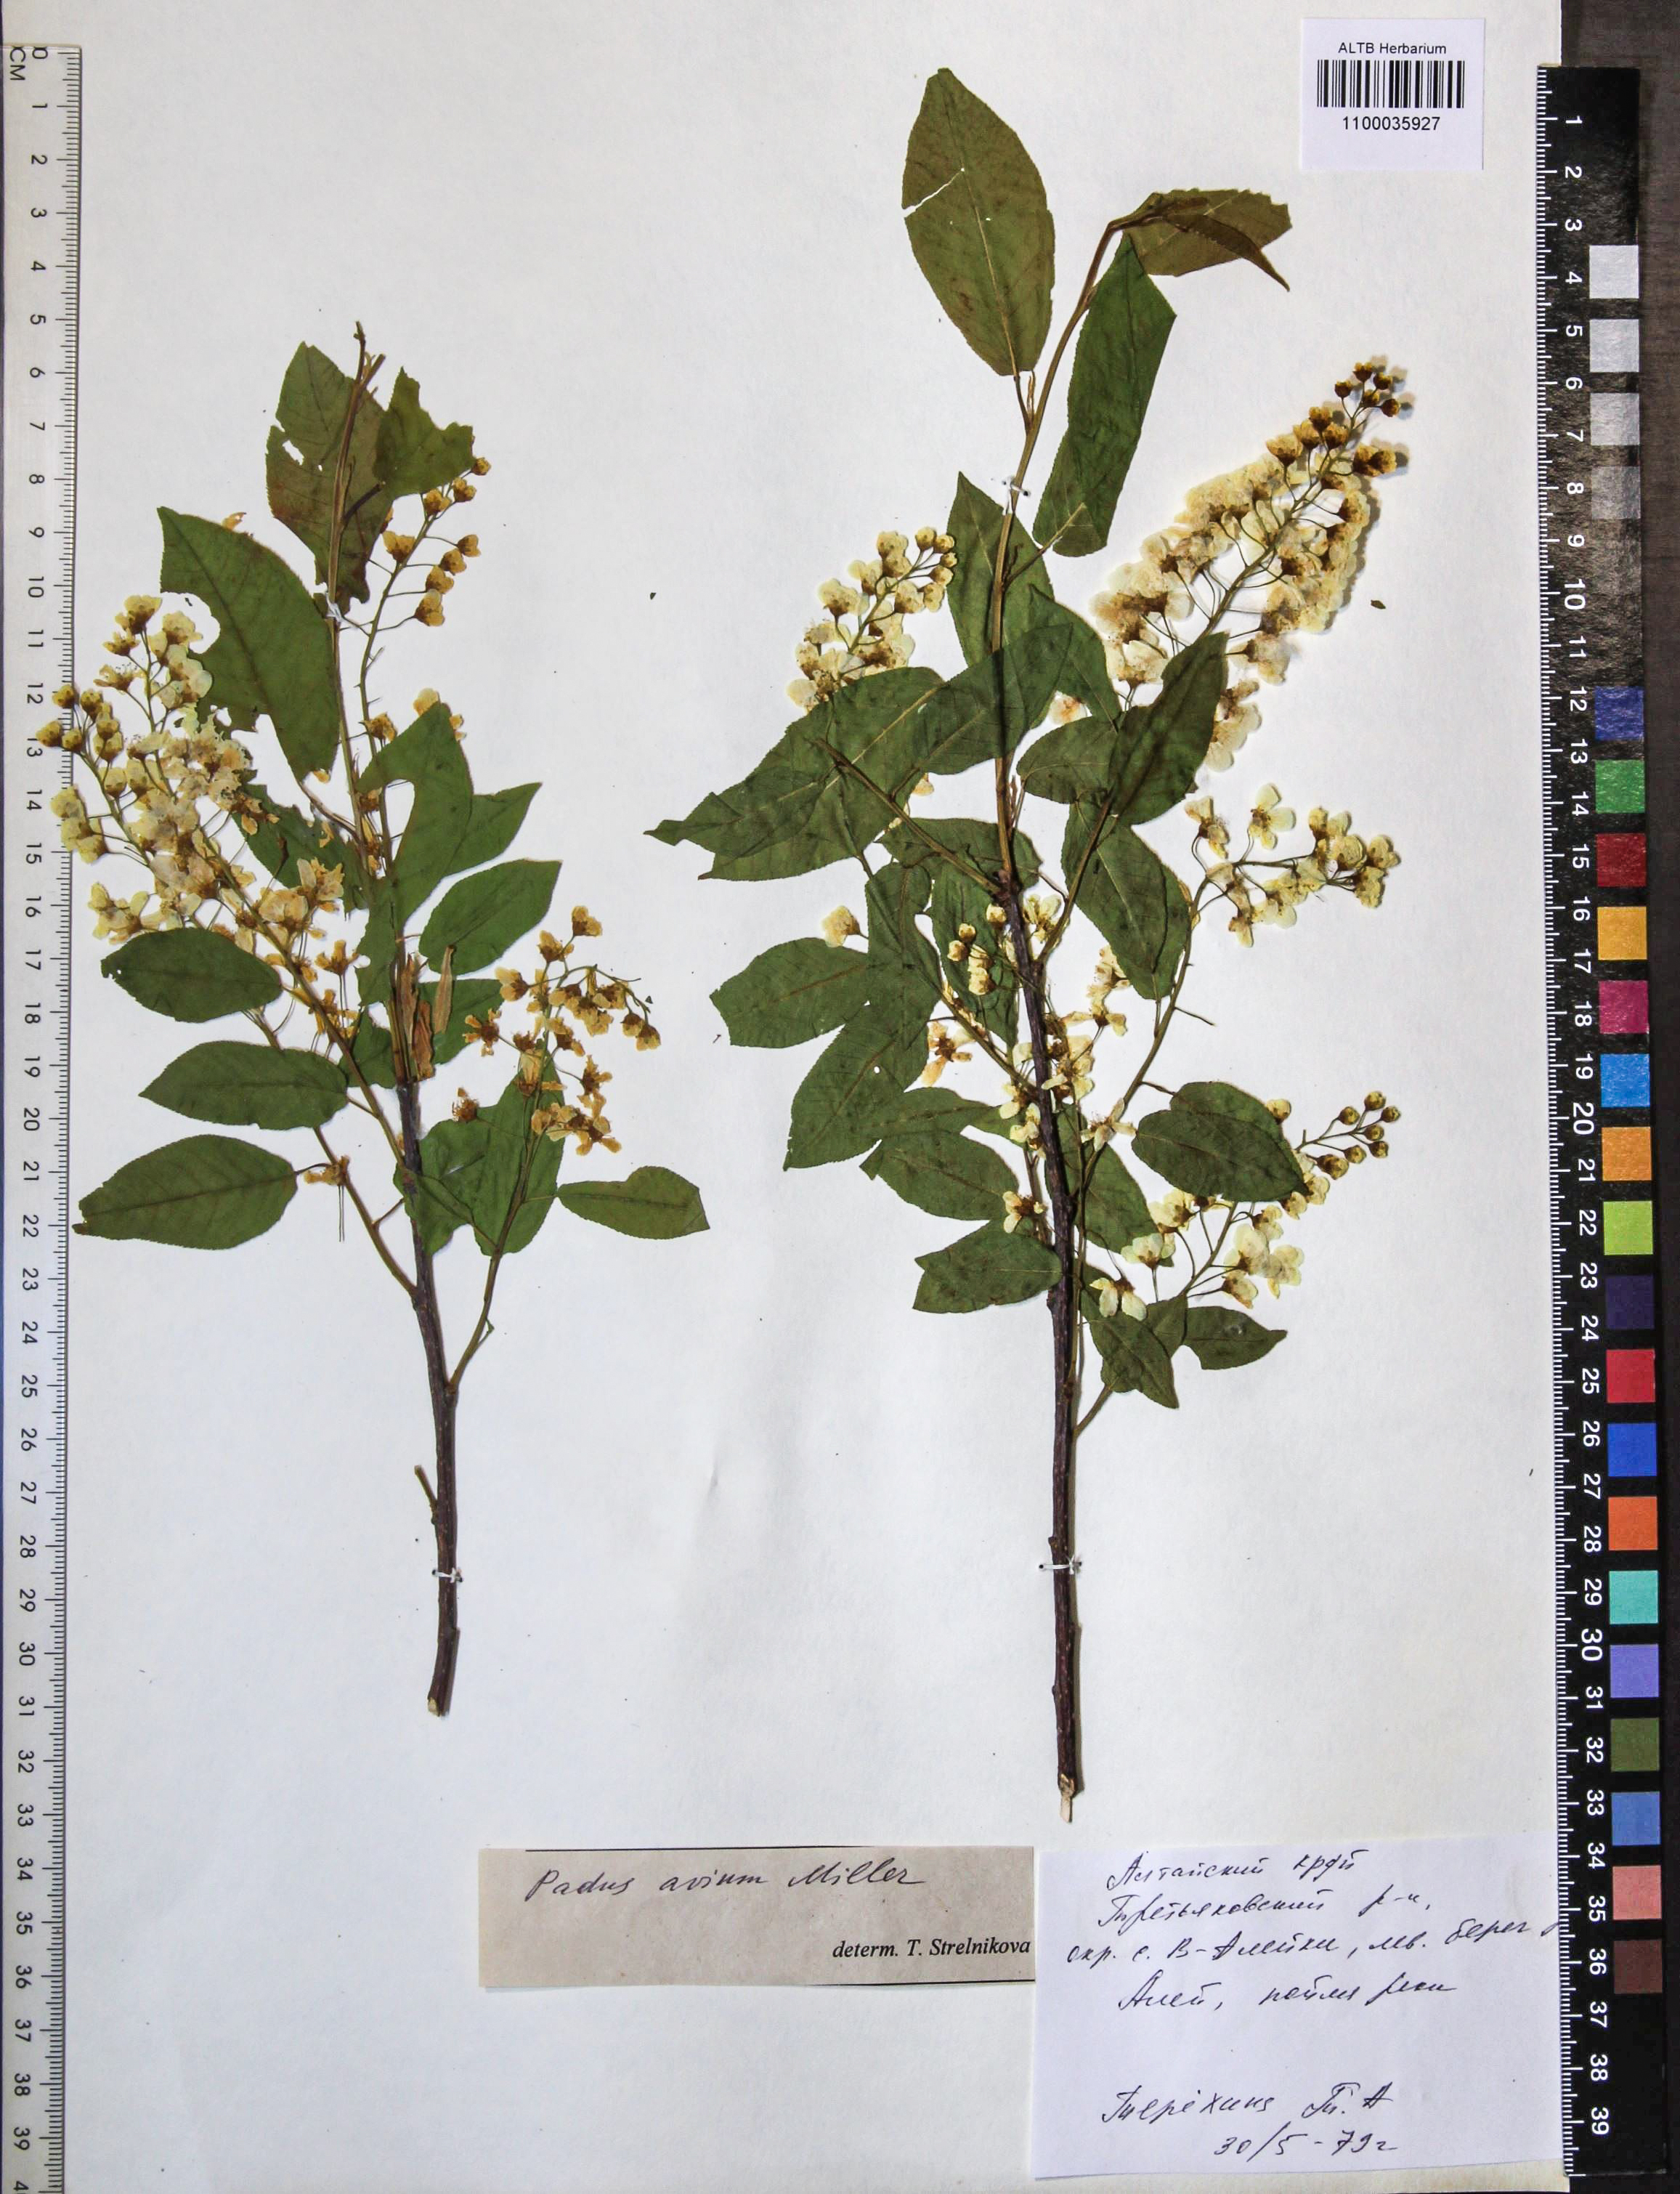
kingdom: Plantae
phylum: Tracheophyta
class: Magnoliopsida
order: Rosales
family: Rosaceae
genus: Prunus
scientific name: Prunus padus
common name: Bird cherry
